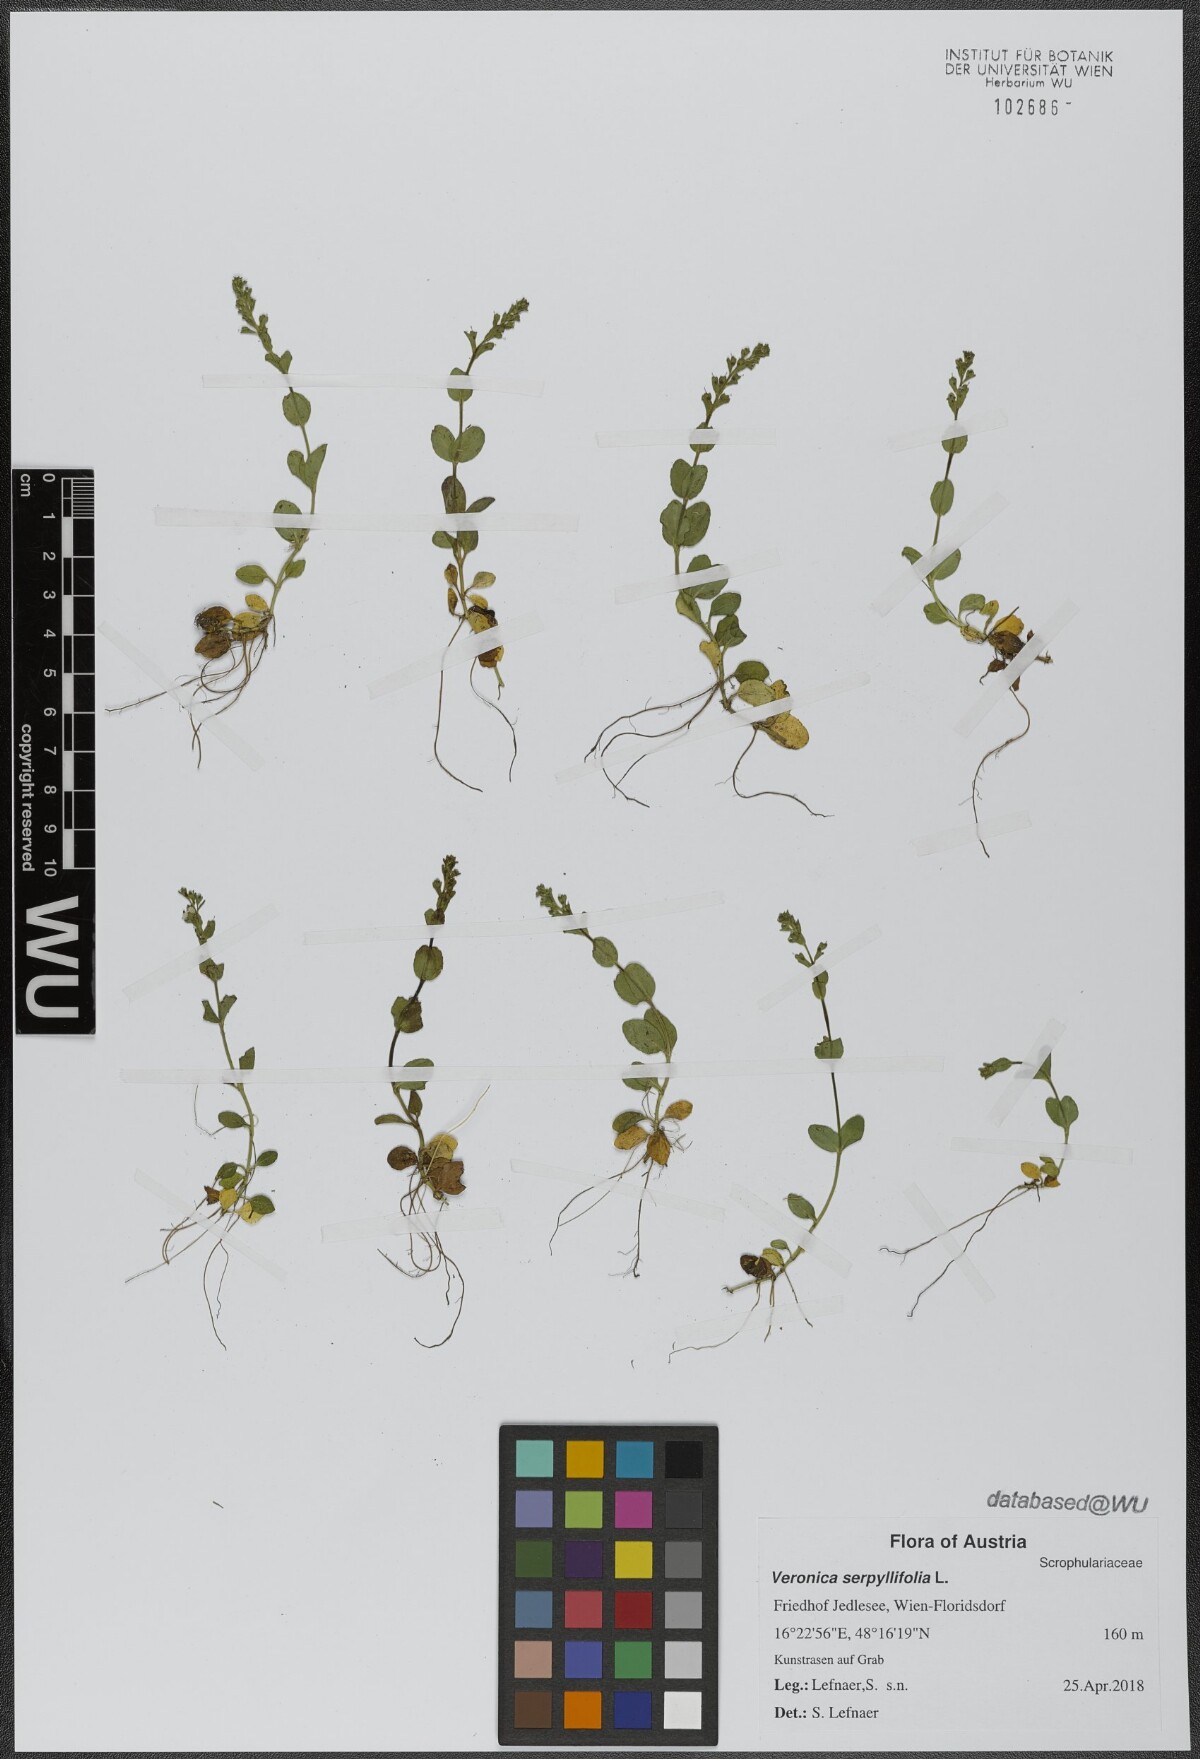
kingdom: Plantae
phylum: Tracheophyta
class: Magnoliopsida
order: Lamiales
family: Plantaginaceae
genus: Veronica
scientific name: Veronica serpyllifolia
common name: Thyme-leaved speedwell
